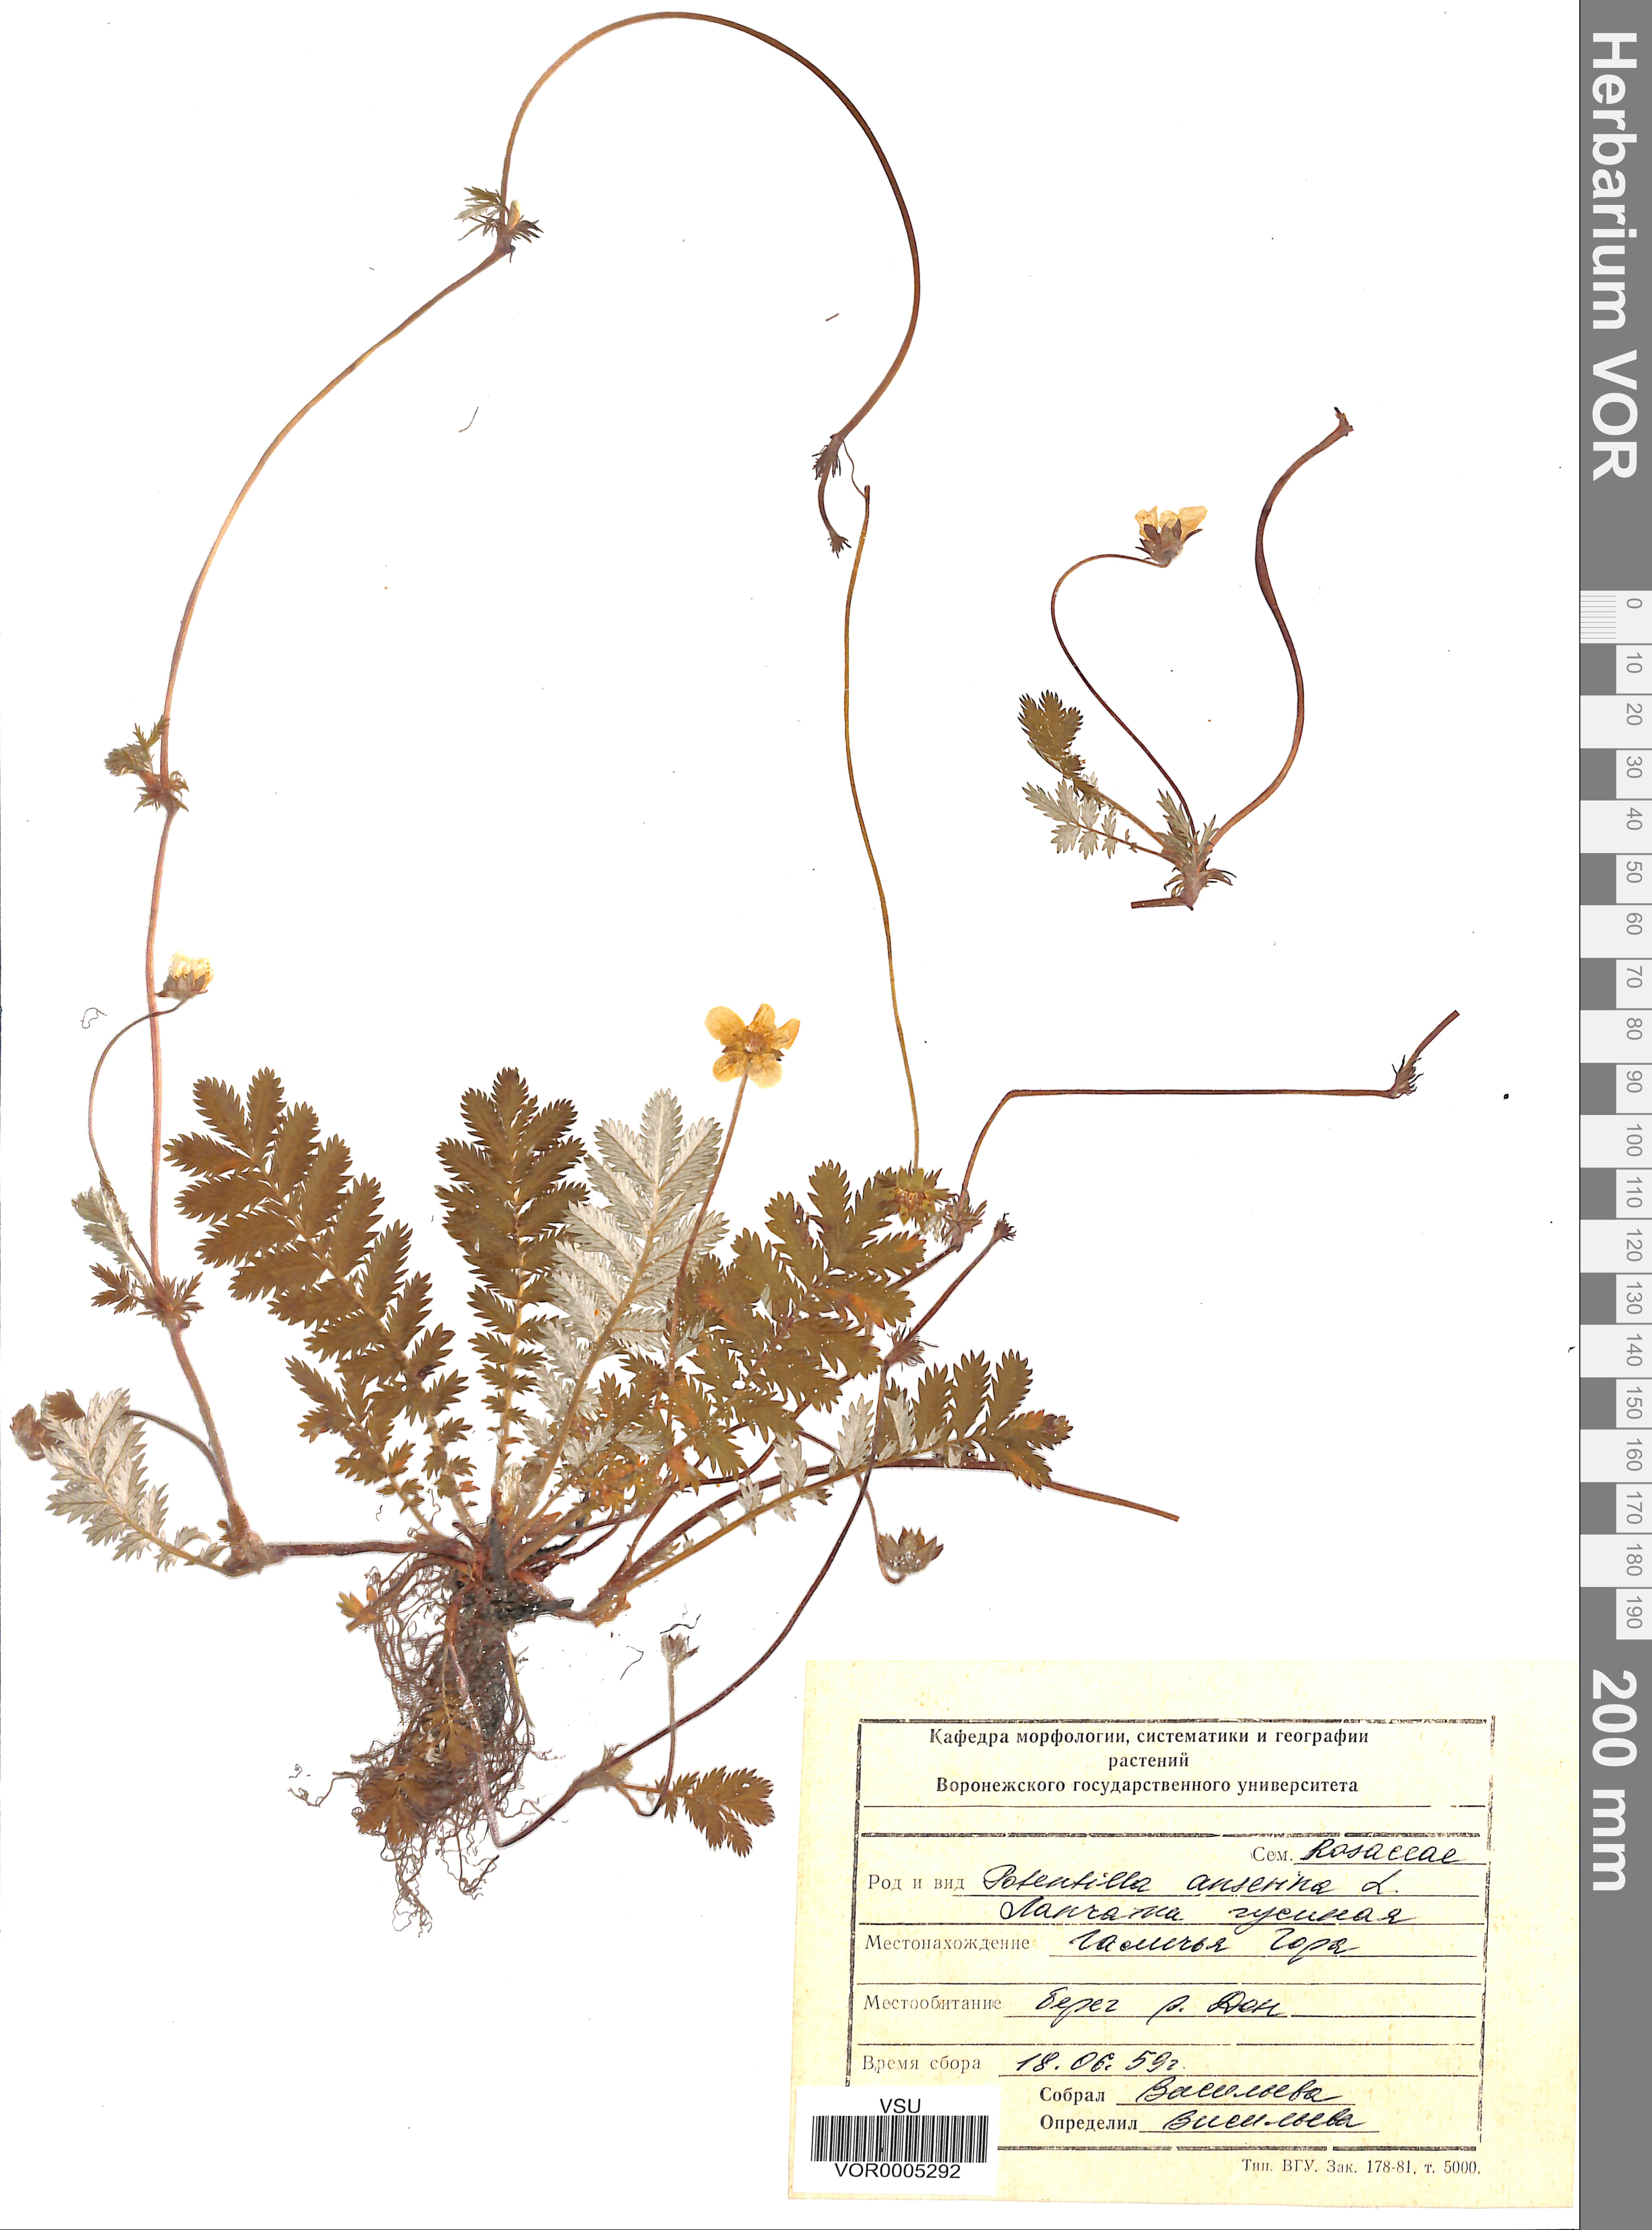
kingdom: Plantae
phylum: Tracheophyta
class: Magnoliopsida
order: Rosales
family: Rosaceae
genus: Argentina
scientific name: Argentina anserina
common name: Common silverweed
